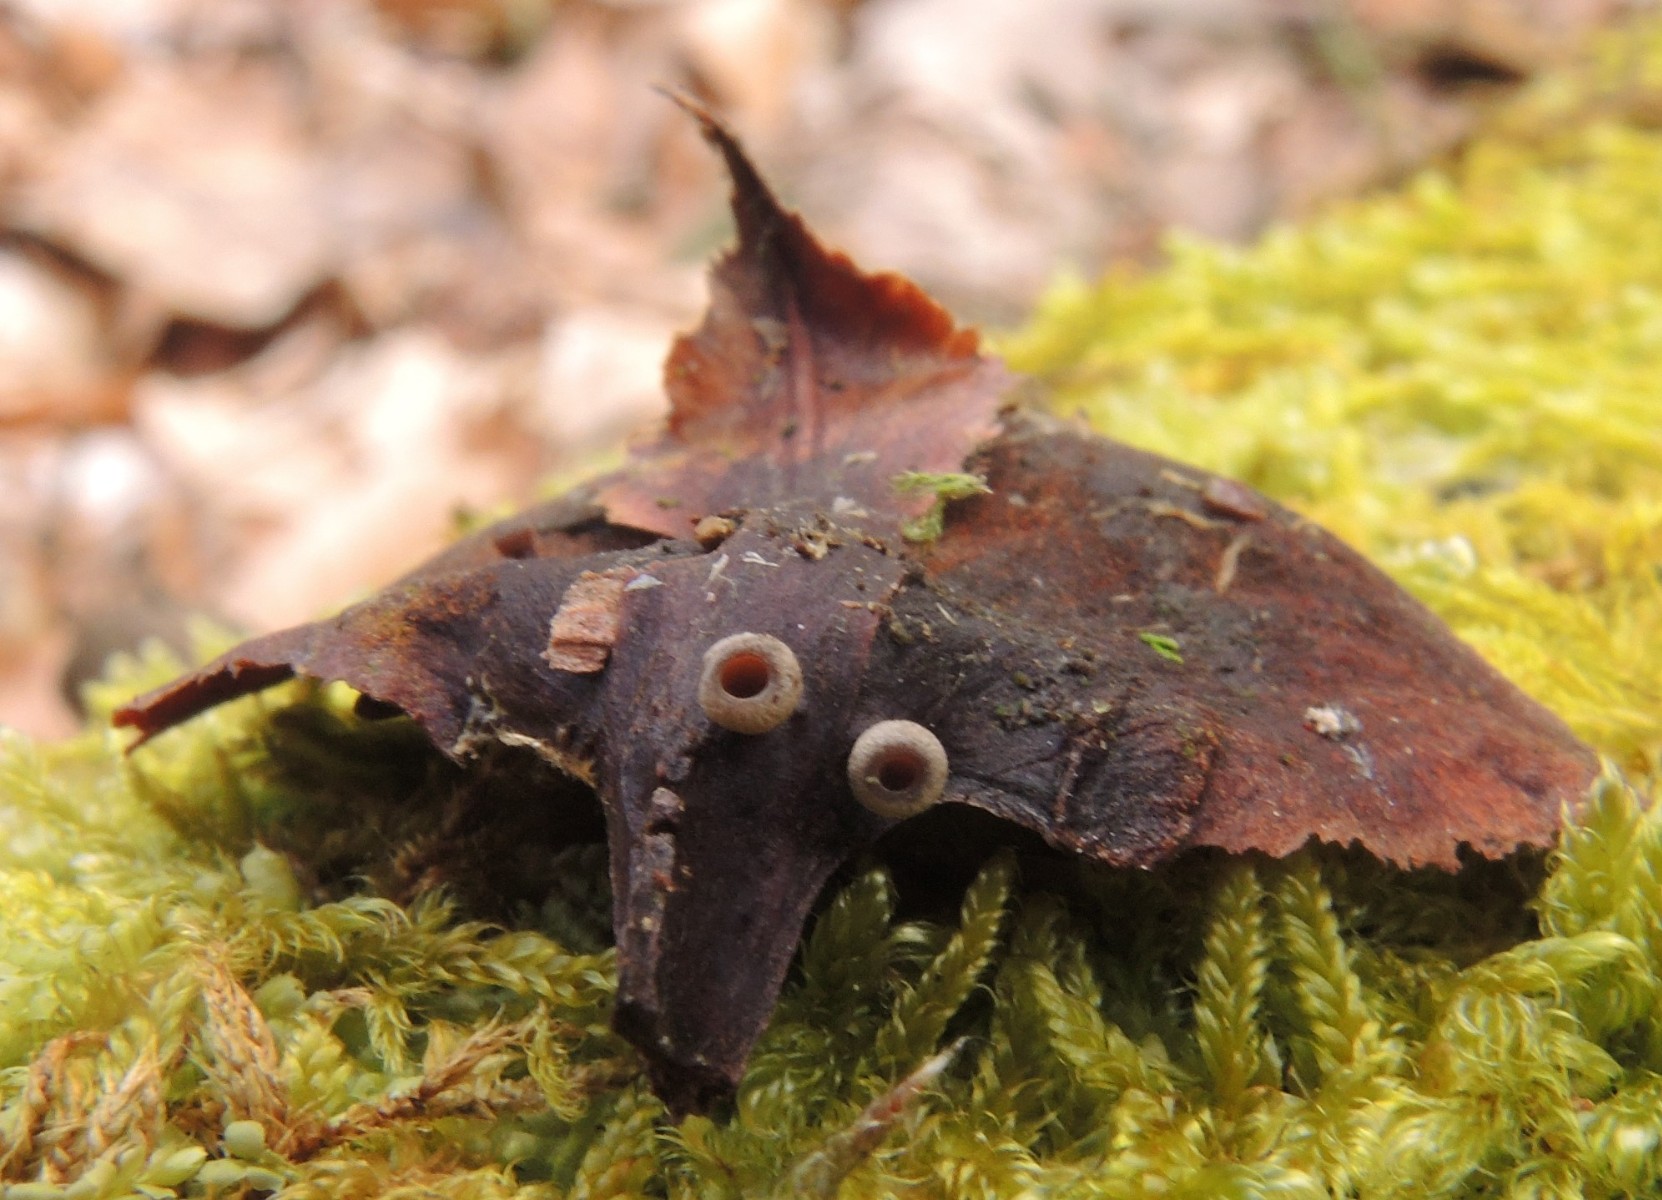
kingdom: Fungi
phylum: Ascomycota
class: Leotiomycetes
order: Helotiales
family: Sclerotiniaceae
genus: Ciboria
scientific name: Ciboria rufofusca
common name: kogleskæl-knoldskive
